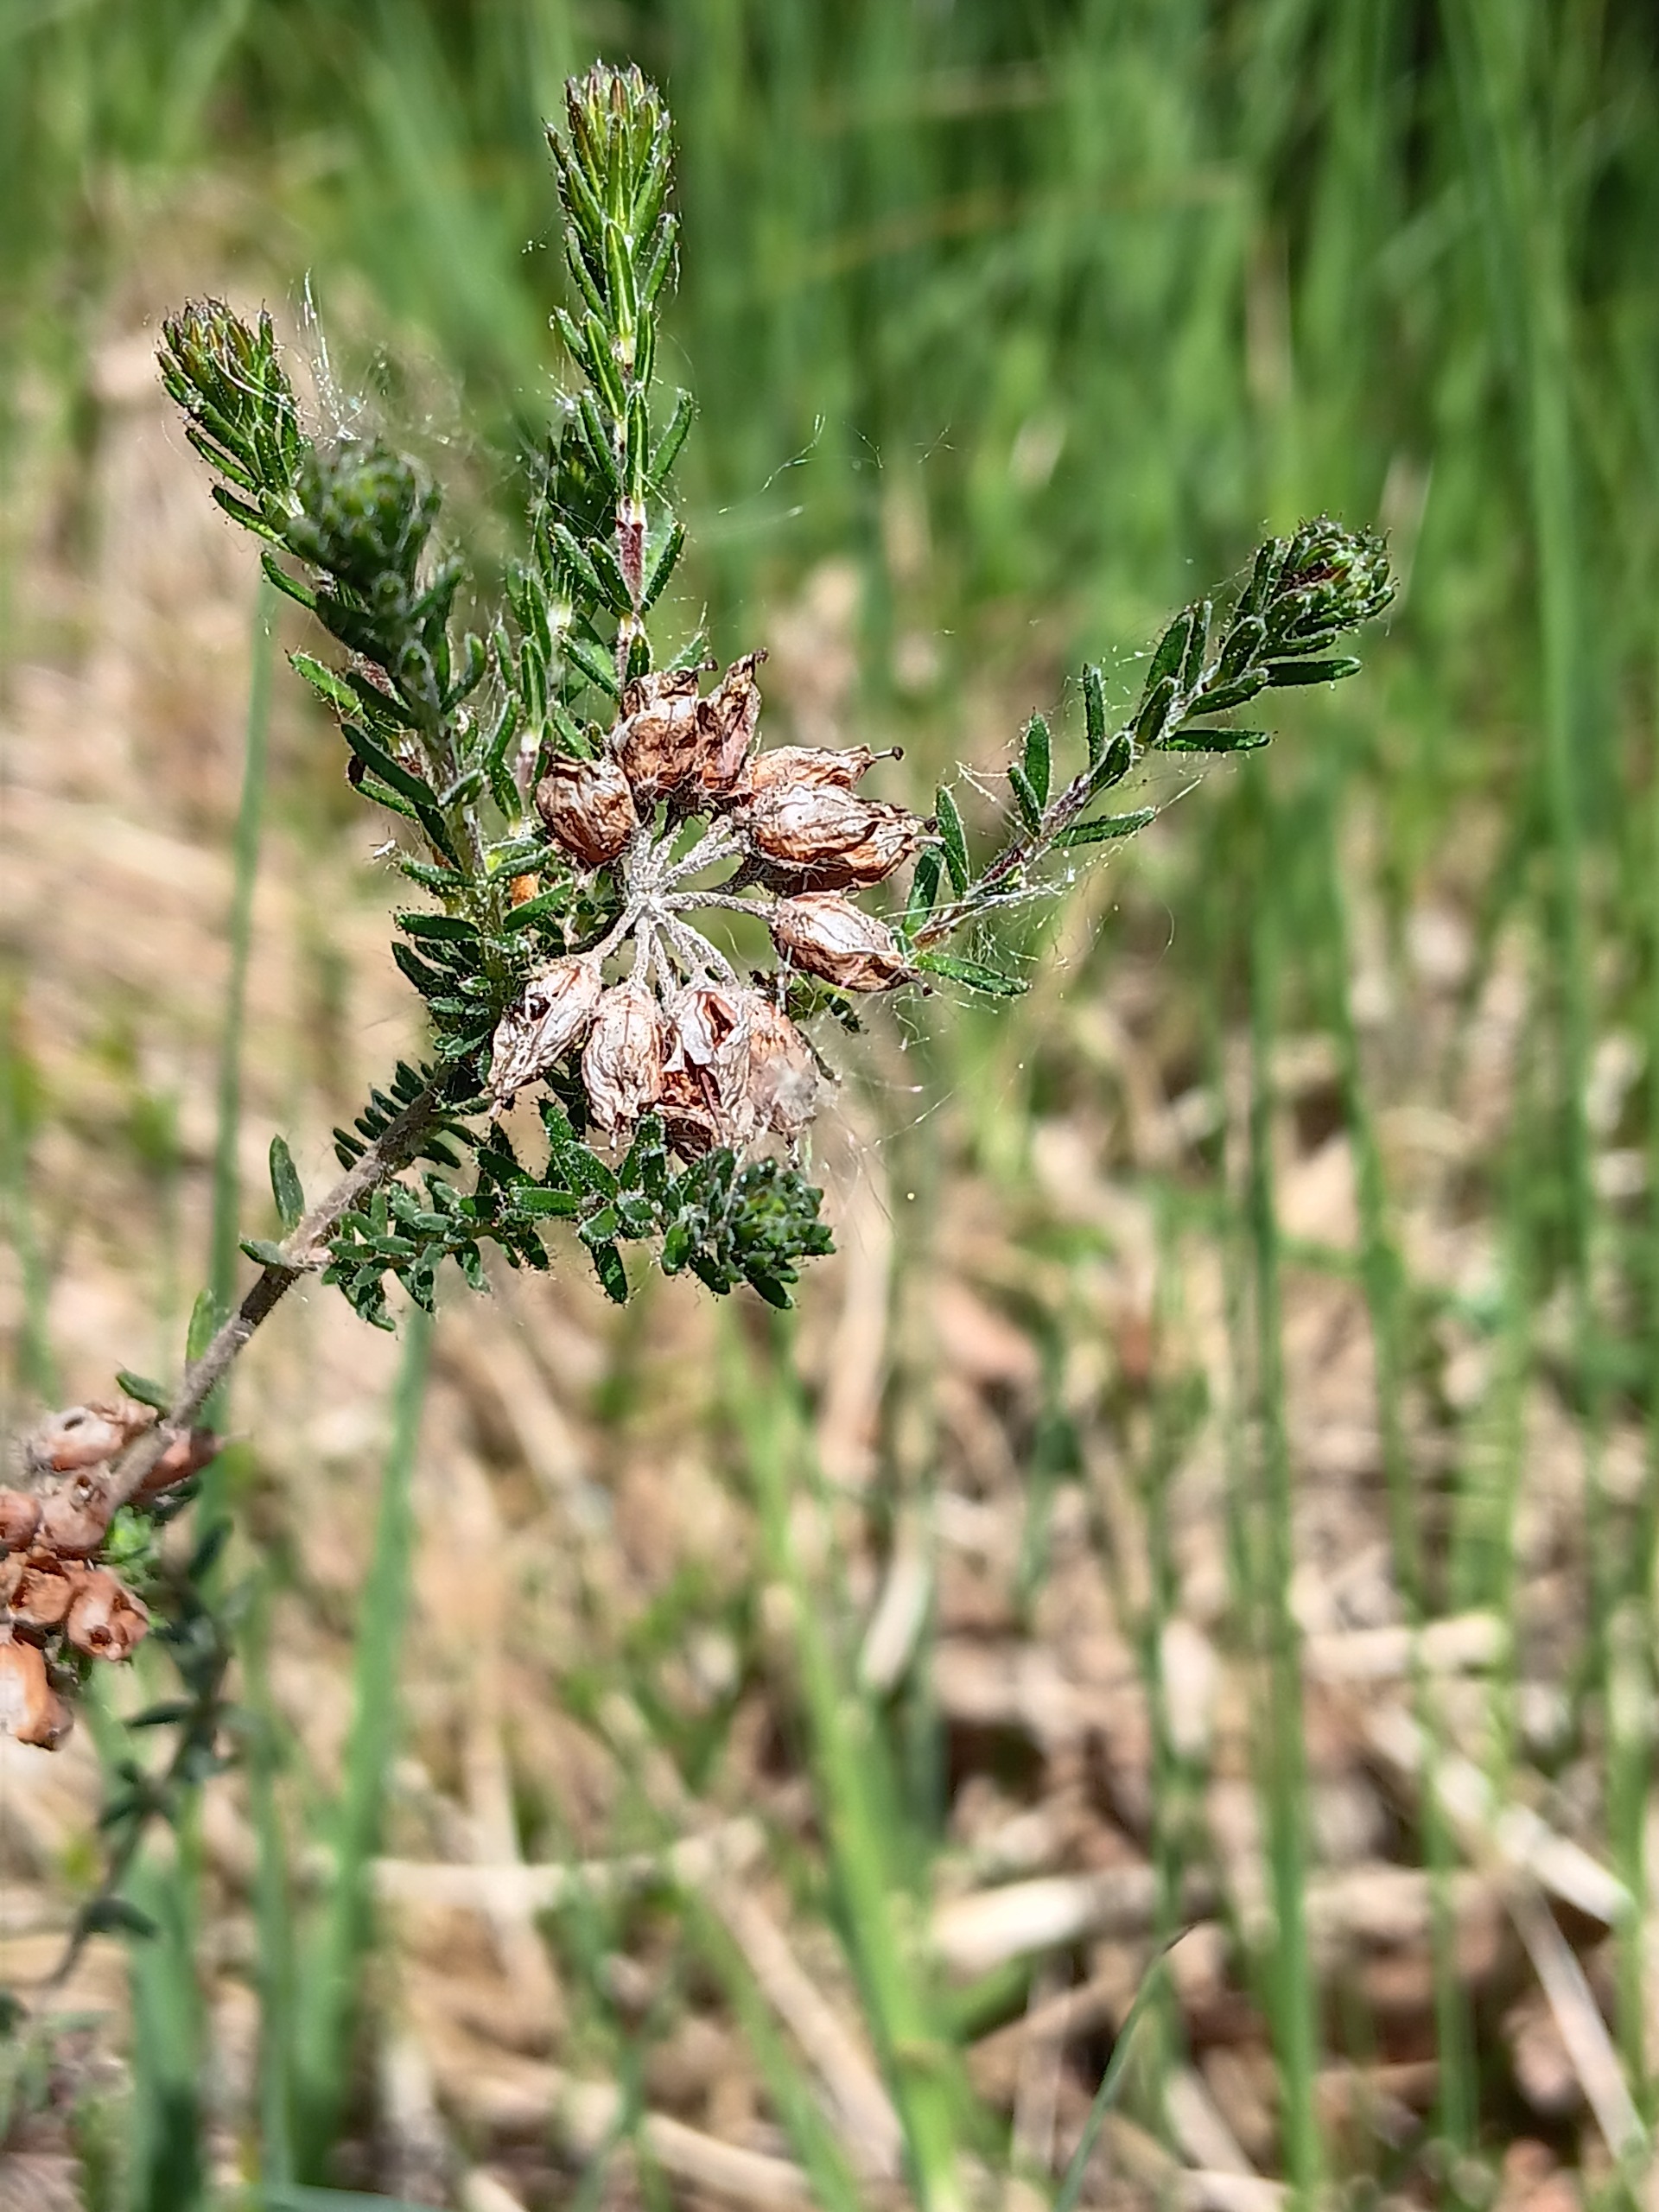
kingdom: Plantae
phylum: Tracheophyta
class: Magnoliopsida
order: Ericales
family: Ericaceae
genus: Erica
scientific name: Erica tetralix
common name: Klokkelyng
